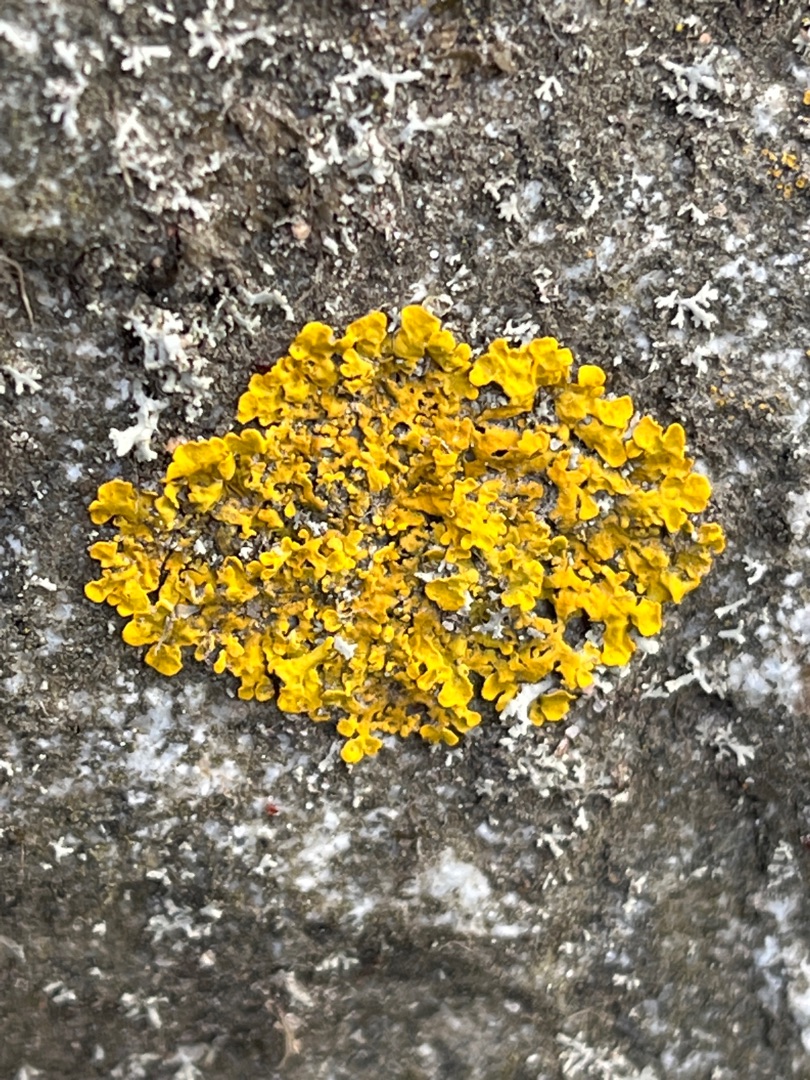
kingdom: Fungi
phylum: Ascomycota
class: Lecanoromycetes
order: Teloschistales
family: Teloschistaceae
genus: Xanthoria
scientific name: Xanthoria parietina
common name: Almindelig væggelav
